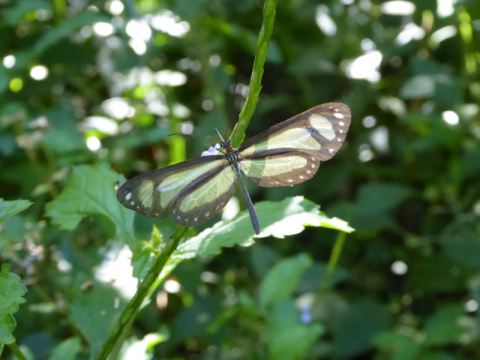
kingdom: Animalia
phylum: Arthropoda
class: Insecta
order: Lepidoptera
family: Nymphalidae
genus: Scada
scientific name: Scada zibia
